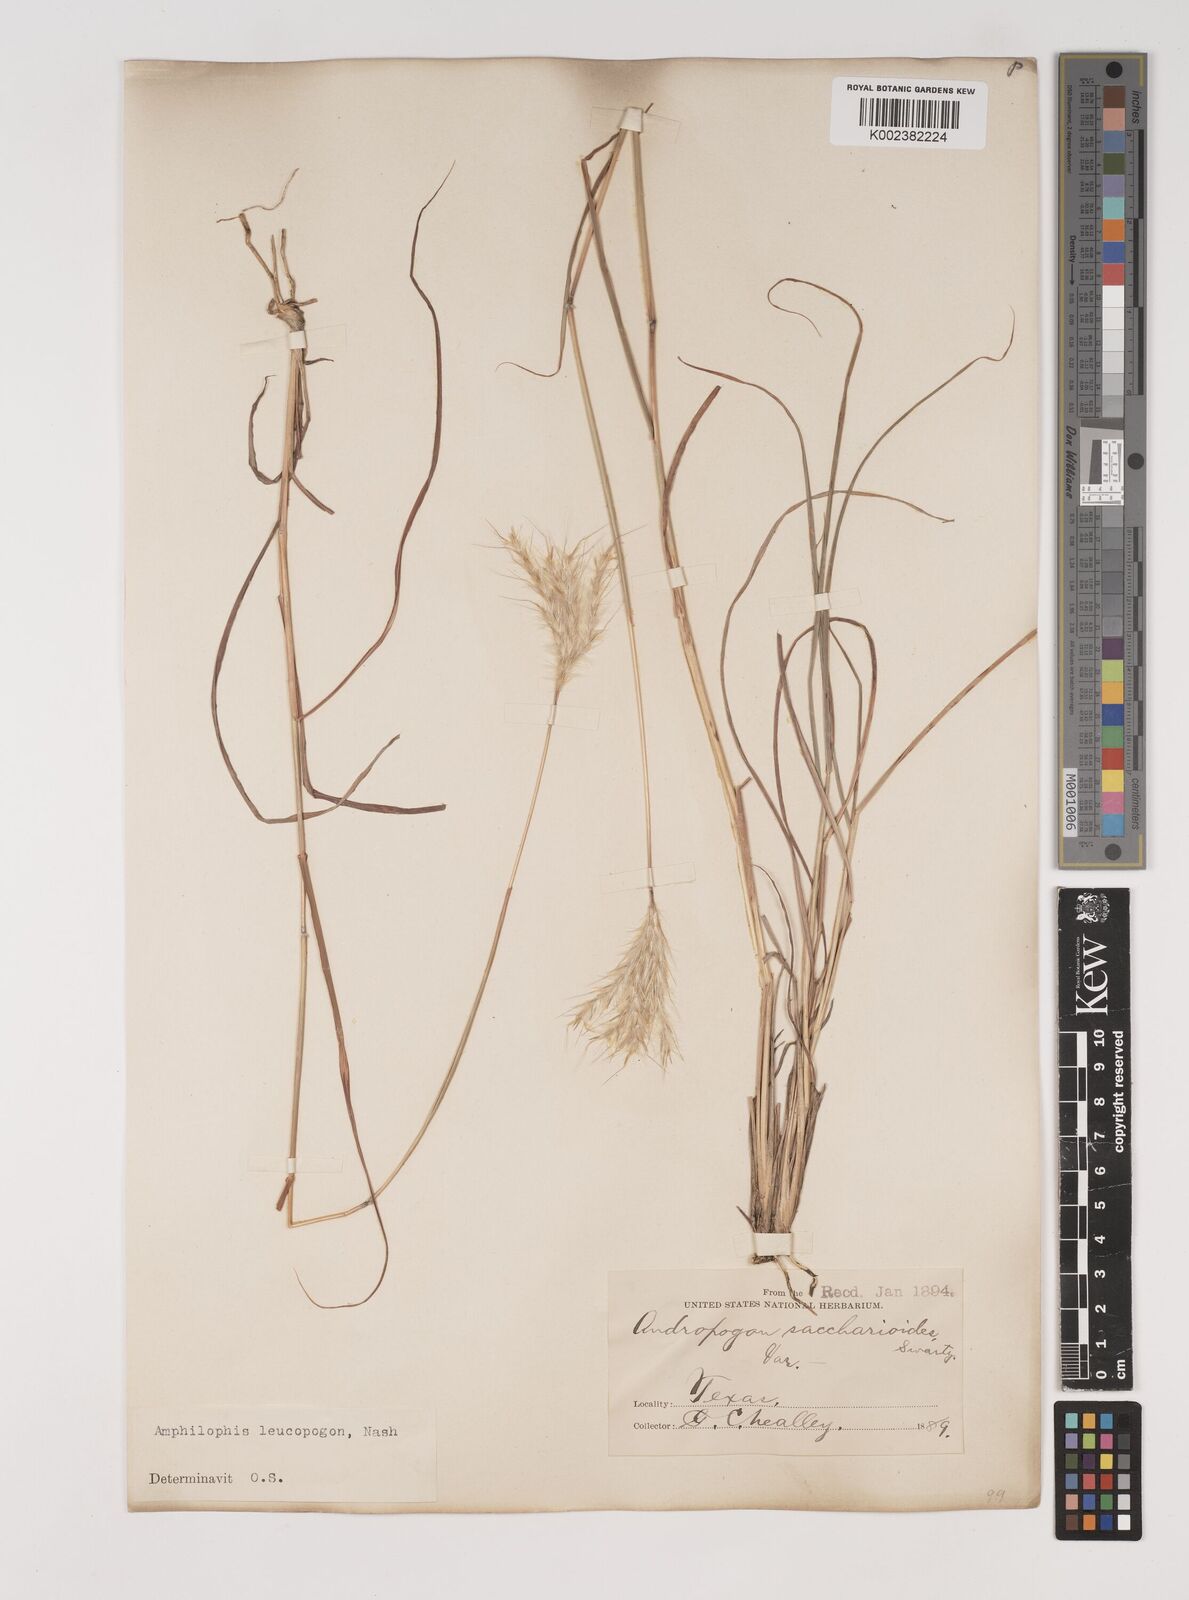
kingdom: Plantae
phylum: Tracheophyta
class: Liliopsida
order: Poales
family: Poaceae
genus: Bothriochloa
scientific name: Bothriochloa springfieldii
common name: Springfield bluestem
